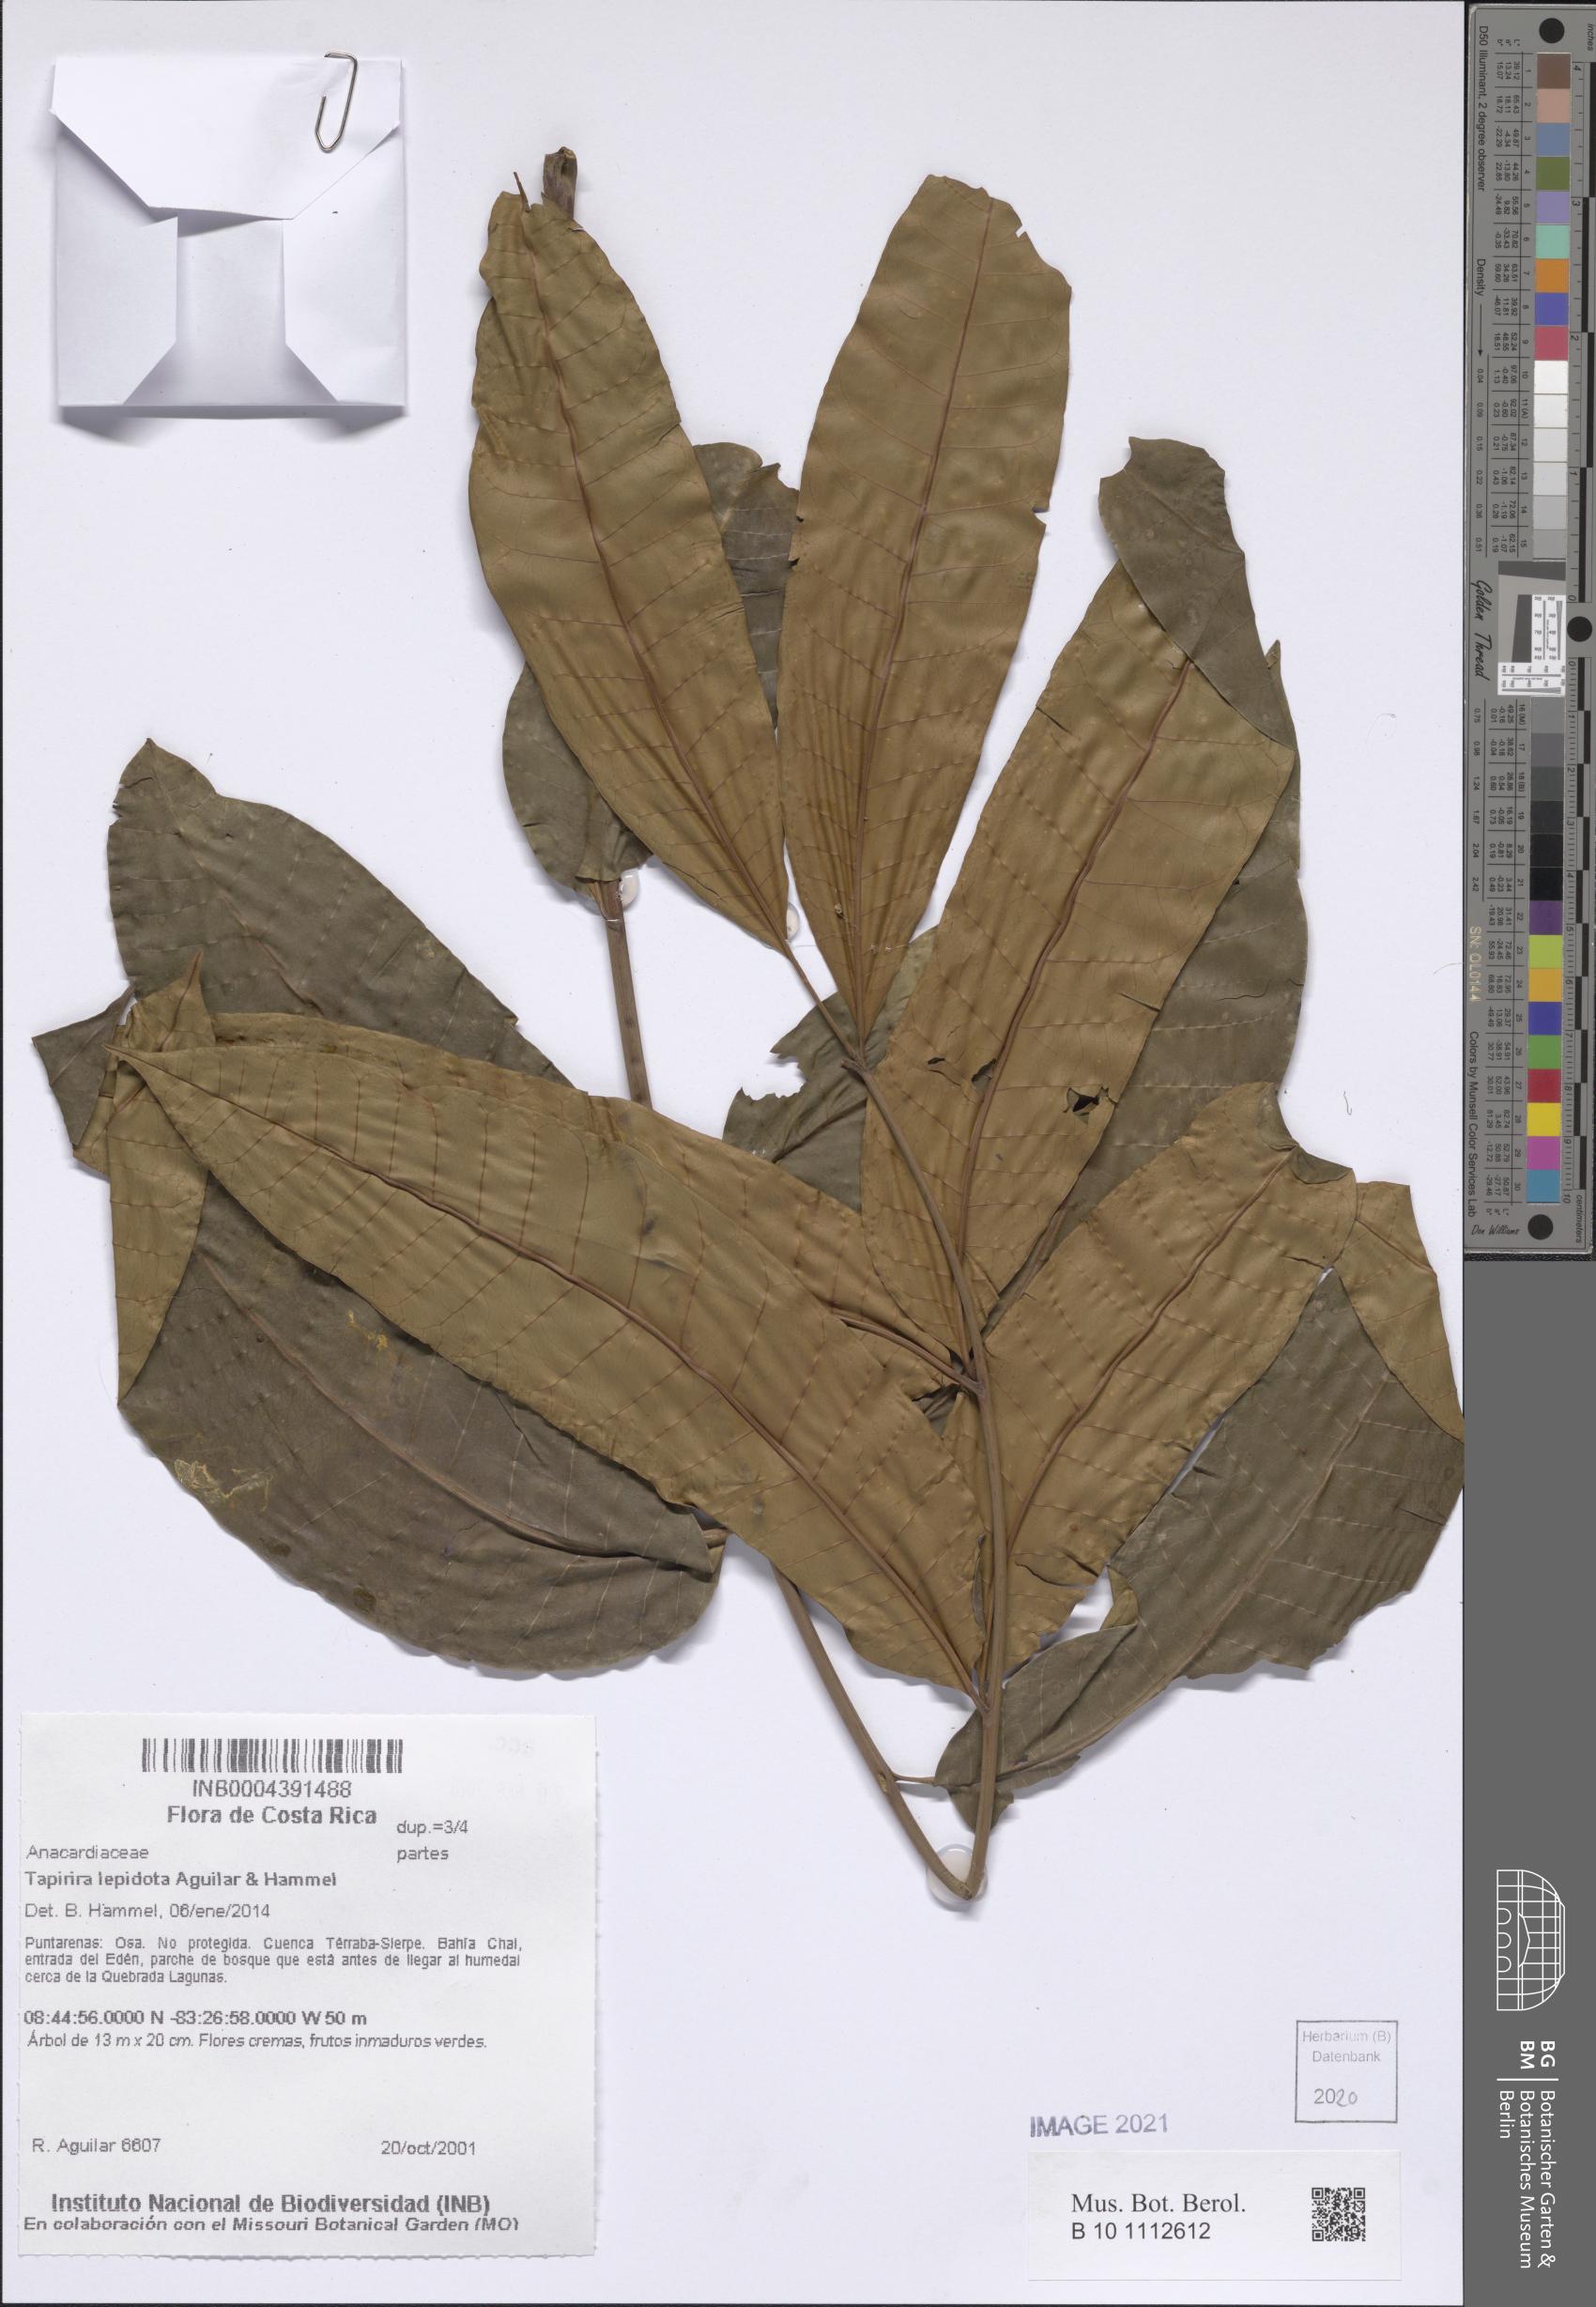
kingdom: Plantae
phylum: Tracheophyta
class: Magnoliopsida
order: Sapindales
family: Anacardiaceae
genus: Tapirira
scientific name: Tapirira lepidota
